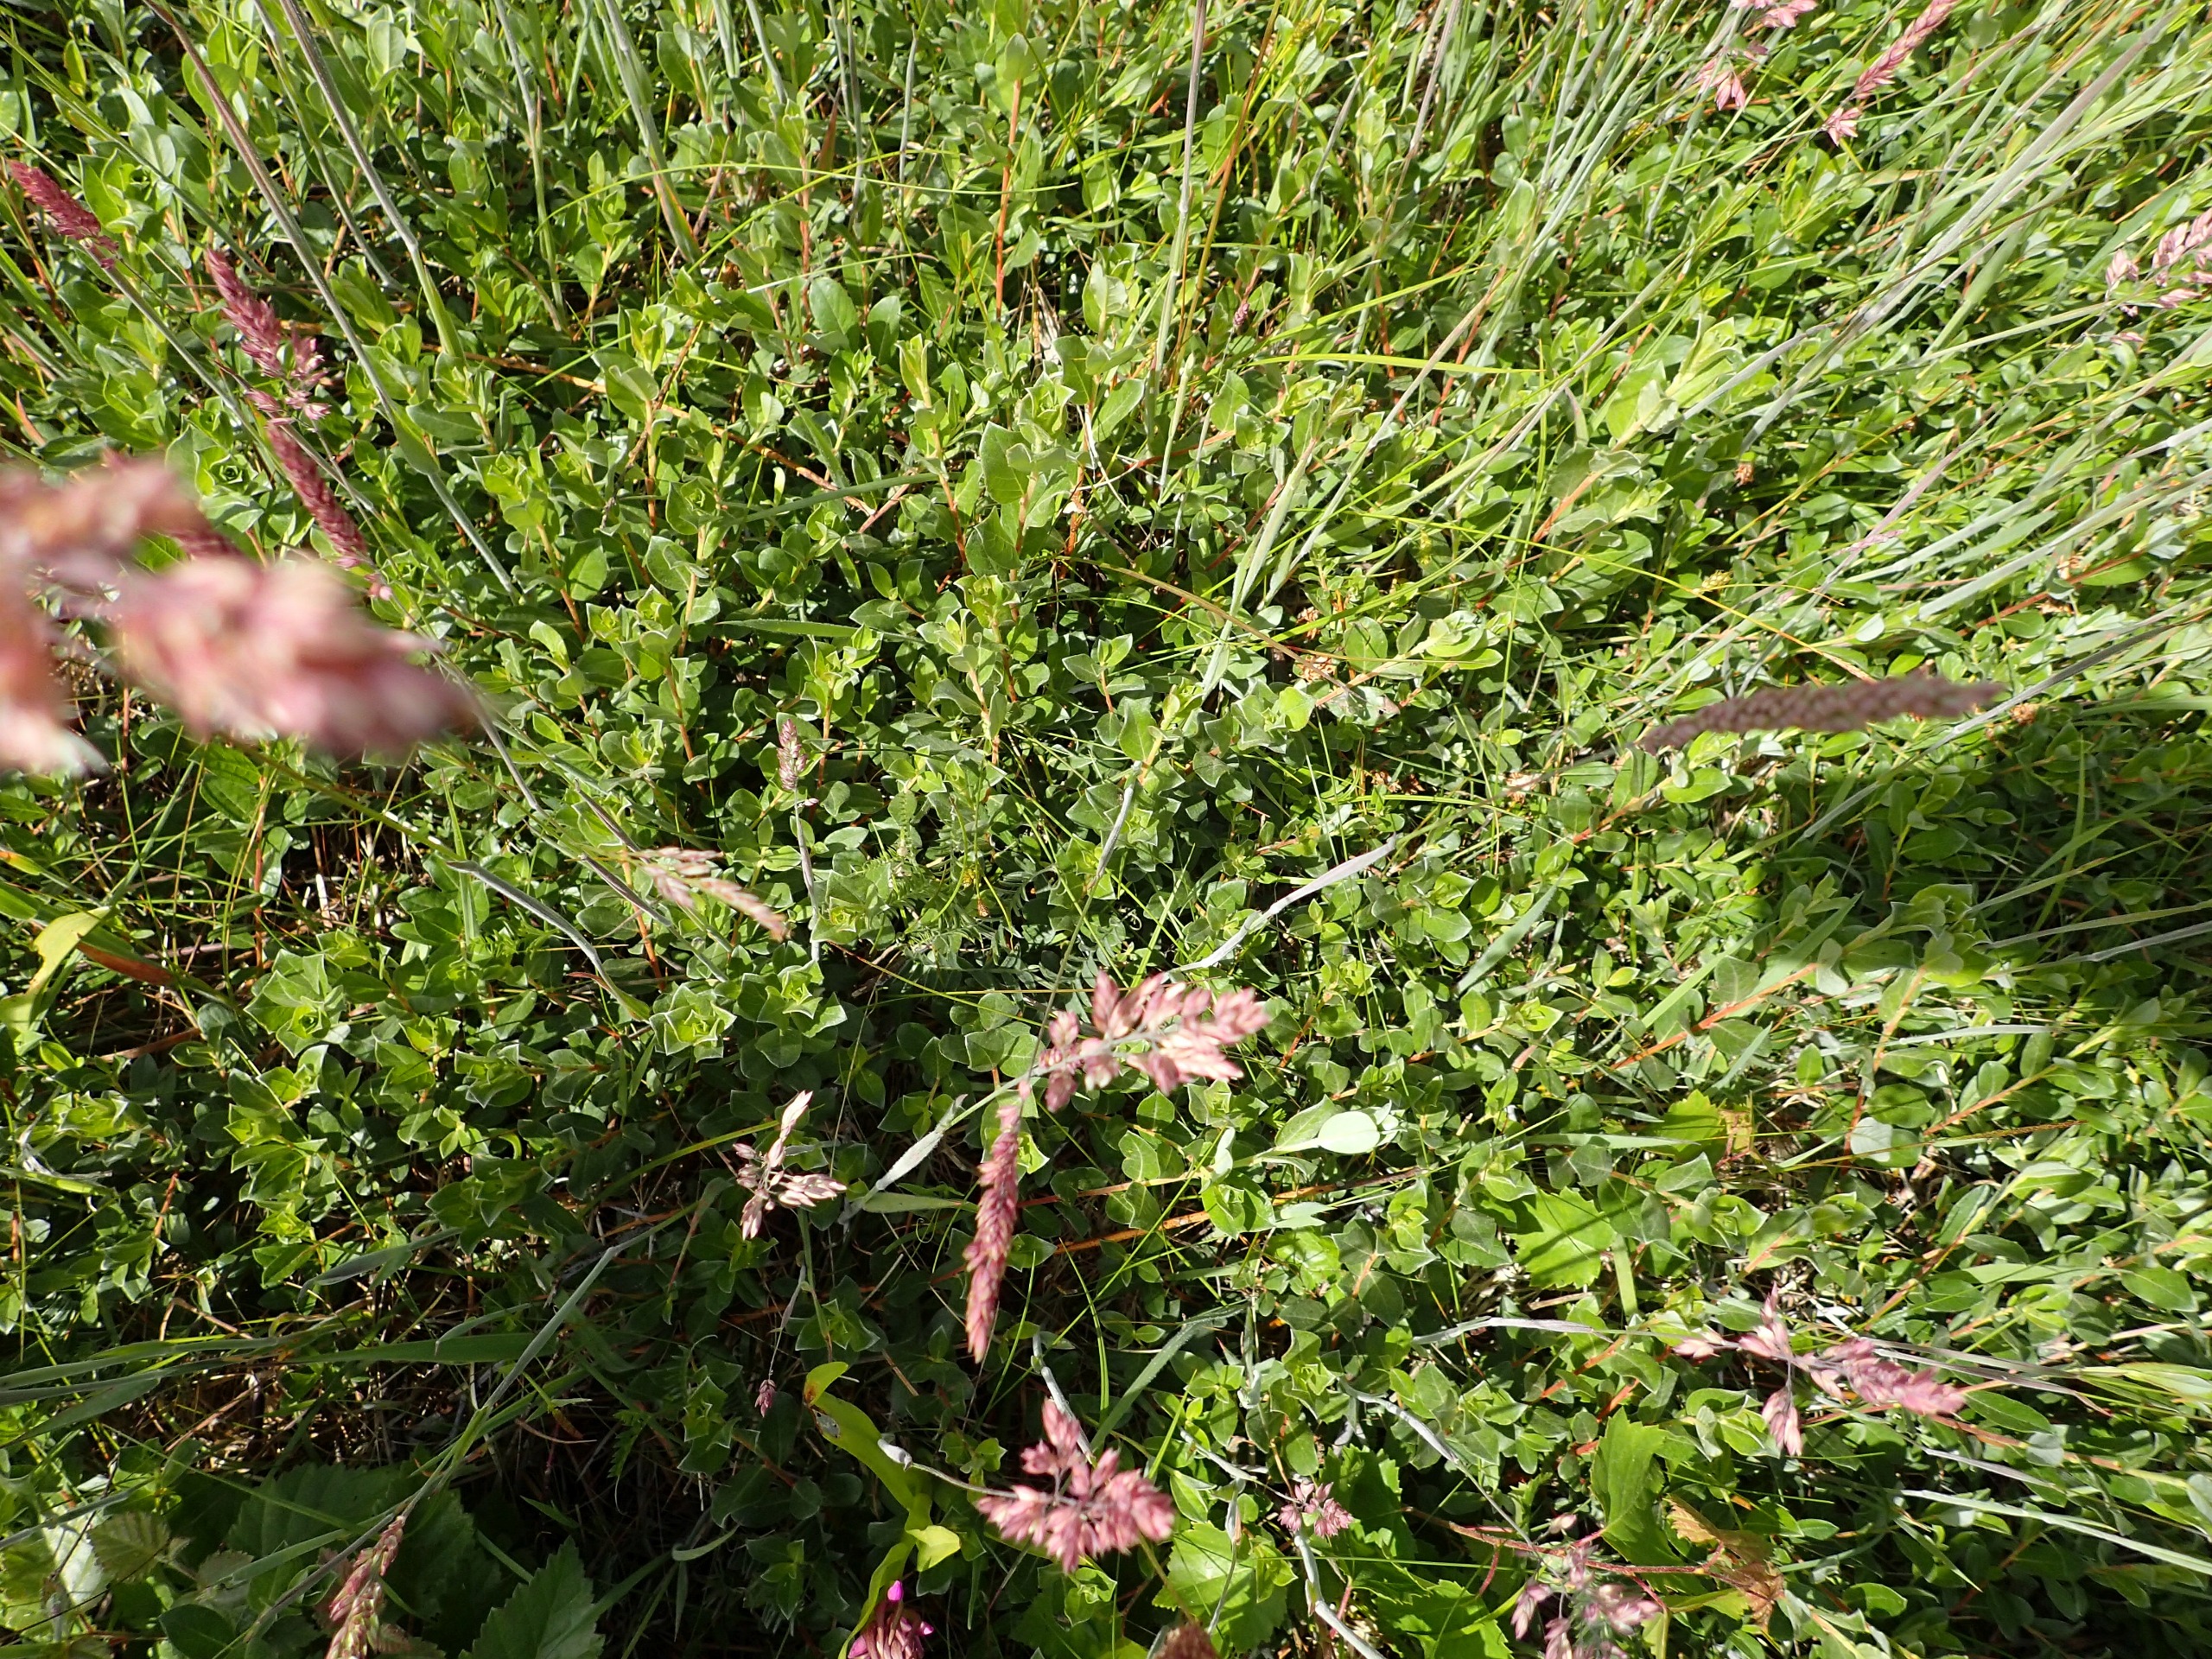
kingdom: Plantae
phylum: Tracheophyta
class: Magnoliopsida
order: Malpighiales
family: Salicaceae
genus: Salix
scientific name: Salix repens
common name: Krybende pil
